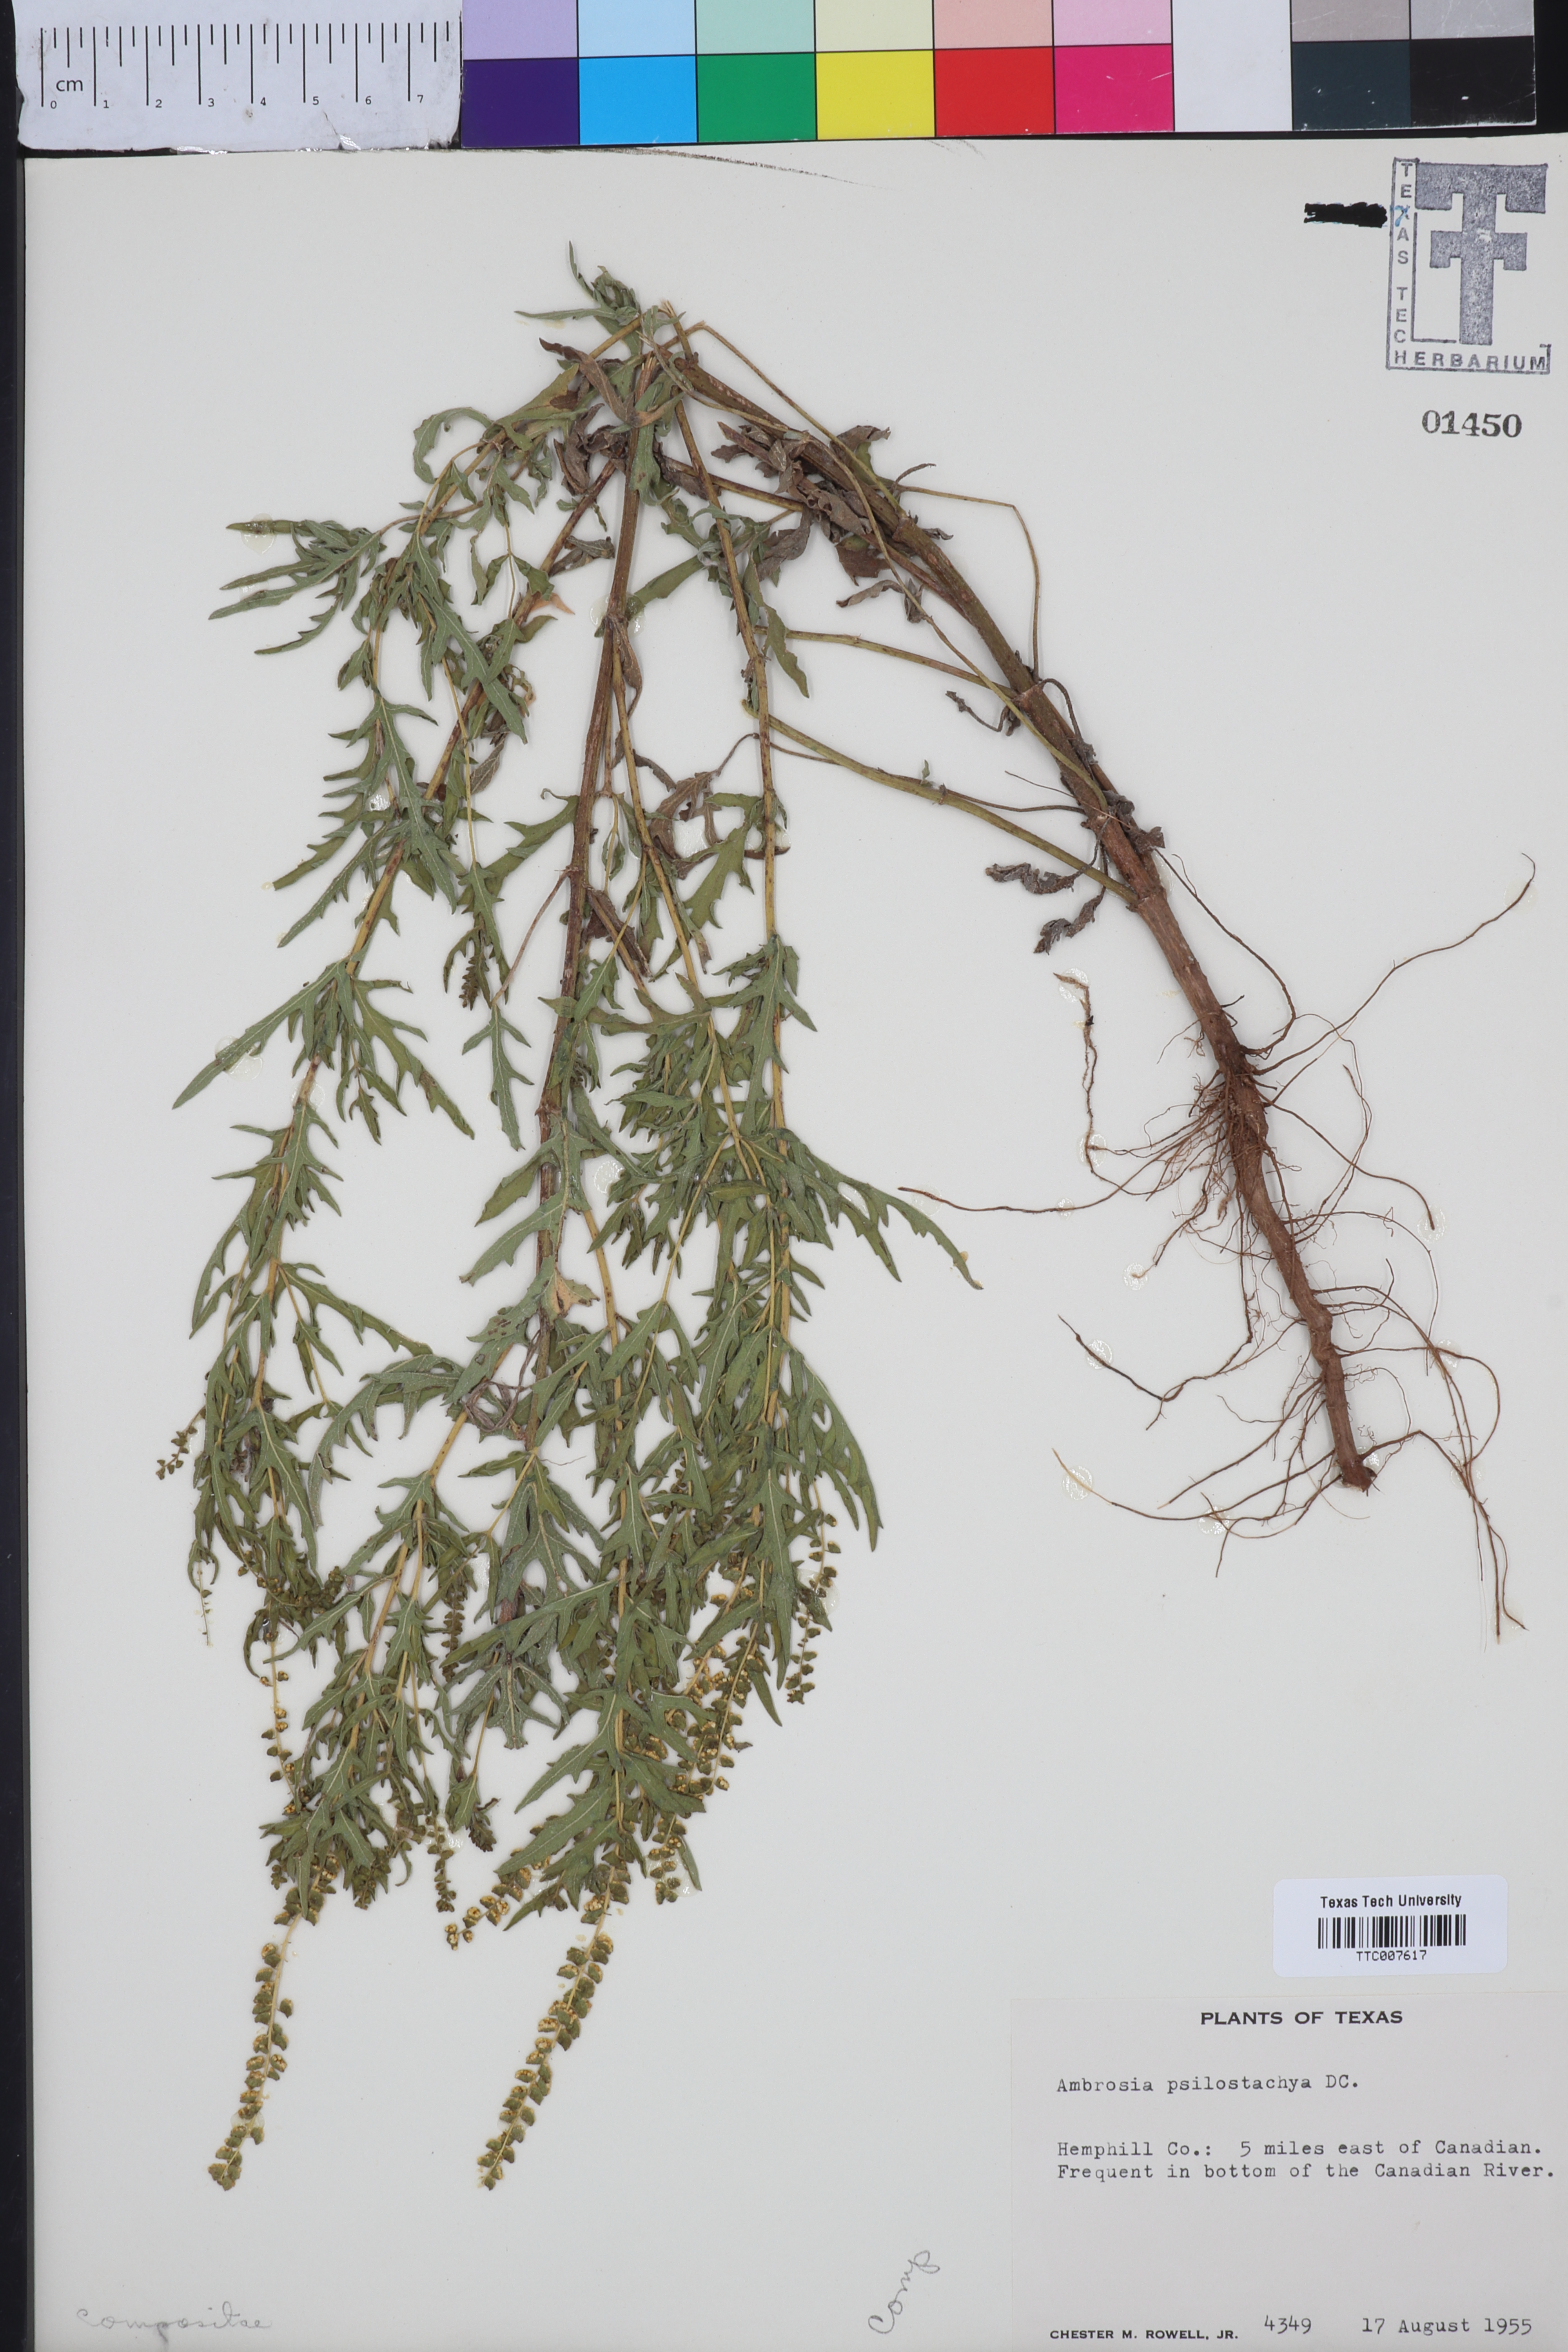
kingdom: Plantae
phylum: Tracheophyta
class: Magnoliopsida
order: Asterales
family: Asteraceae
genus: Ambrosia
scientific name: Ambrosia psilostachya
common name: Perennial ragweed
